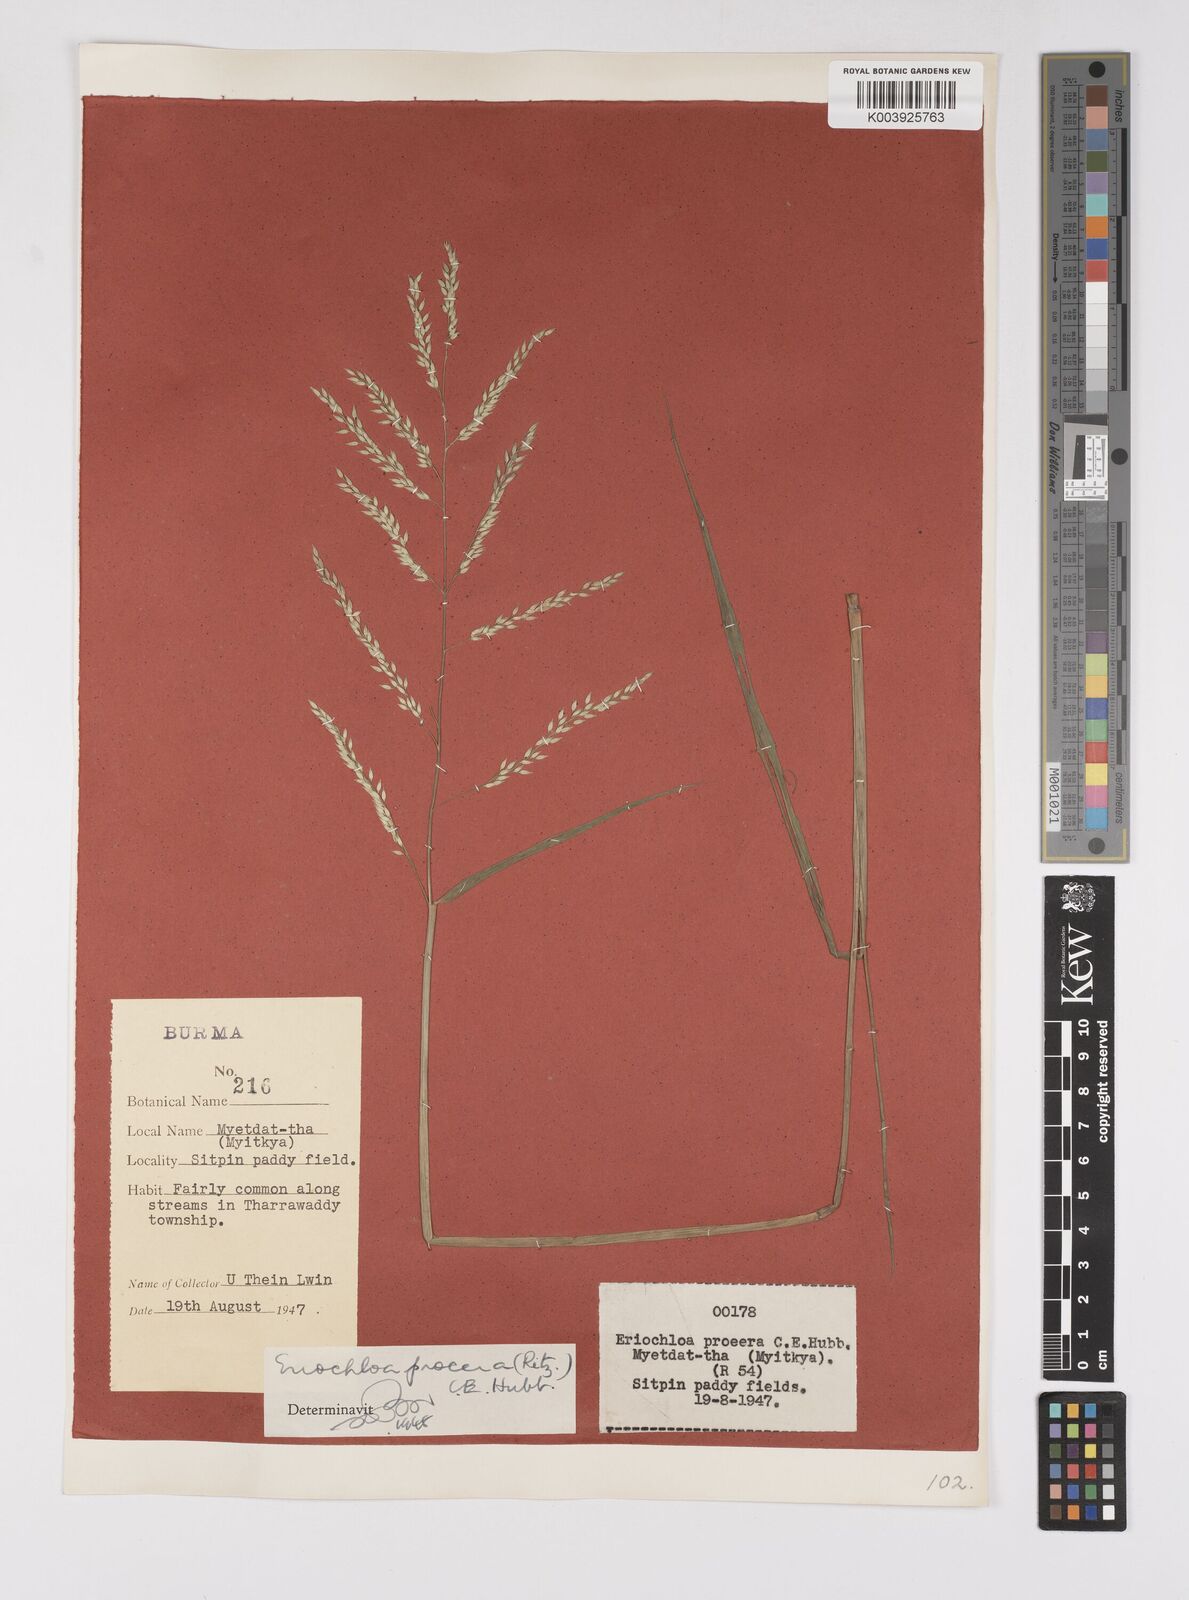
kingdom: Plantae
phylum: Tracheophyta
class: Liliopsida
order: Poales
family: Poaceae
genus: Eriochloa
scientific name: Eriochloa procera
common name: Spring grass
